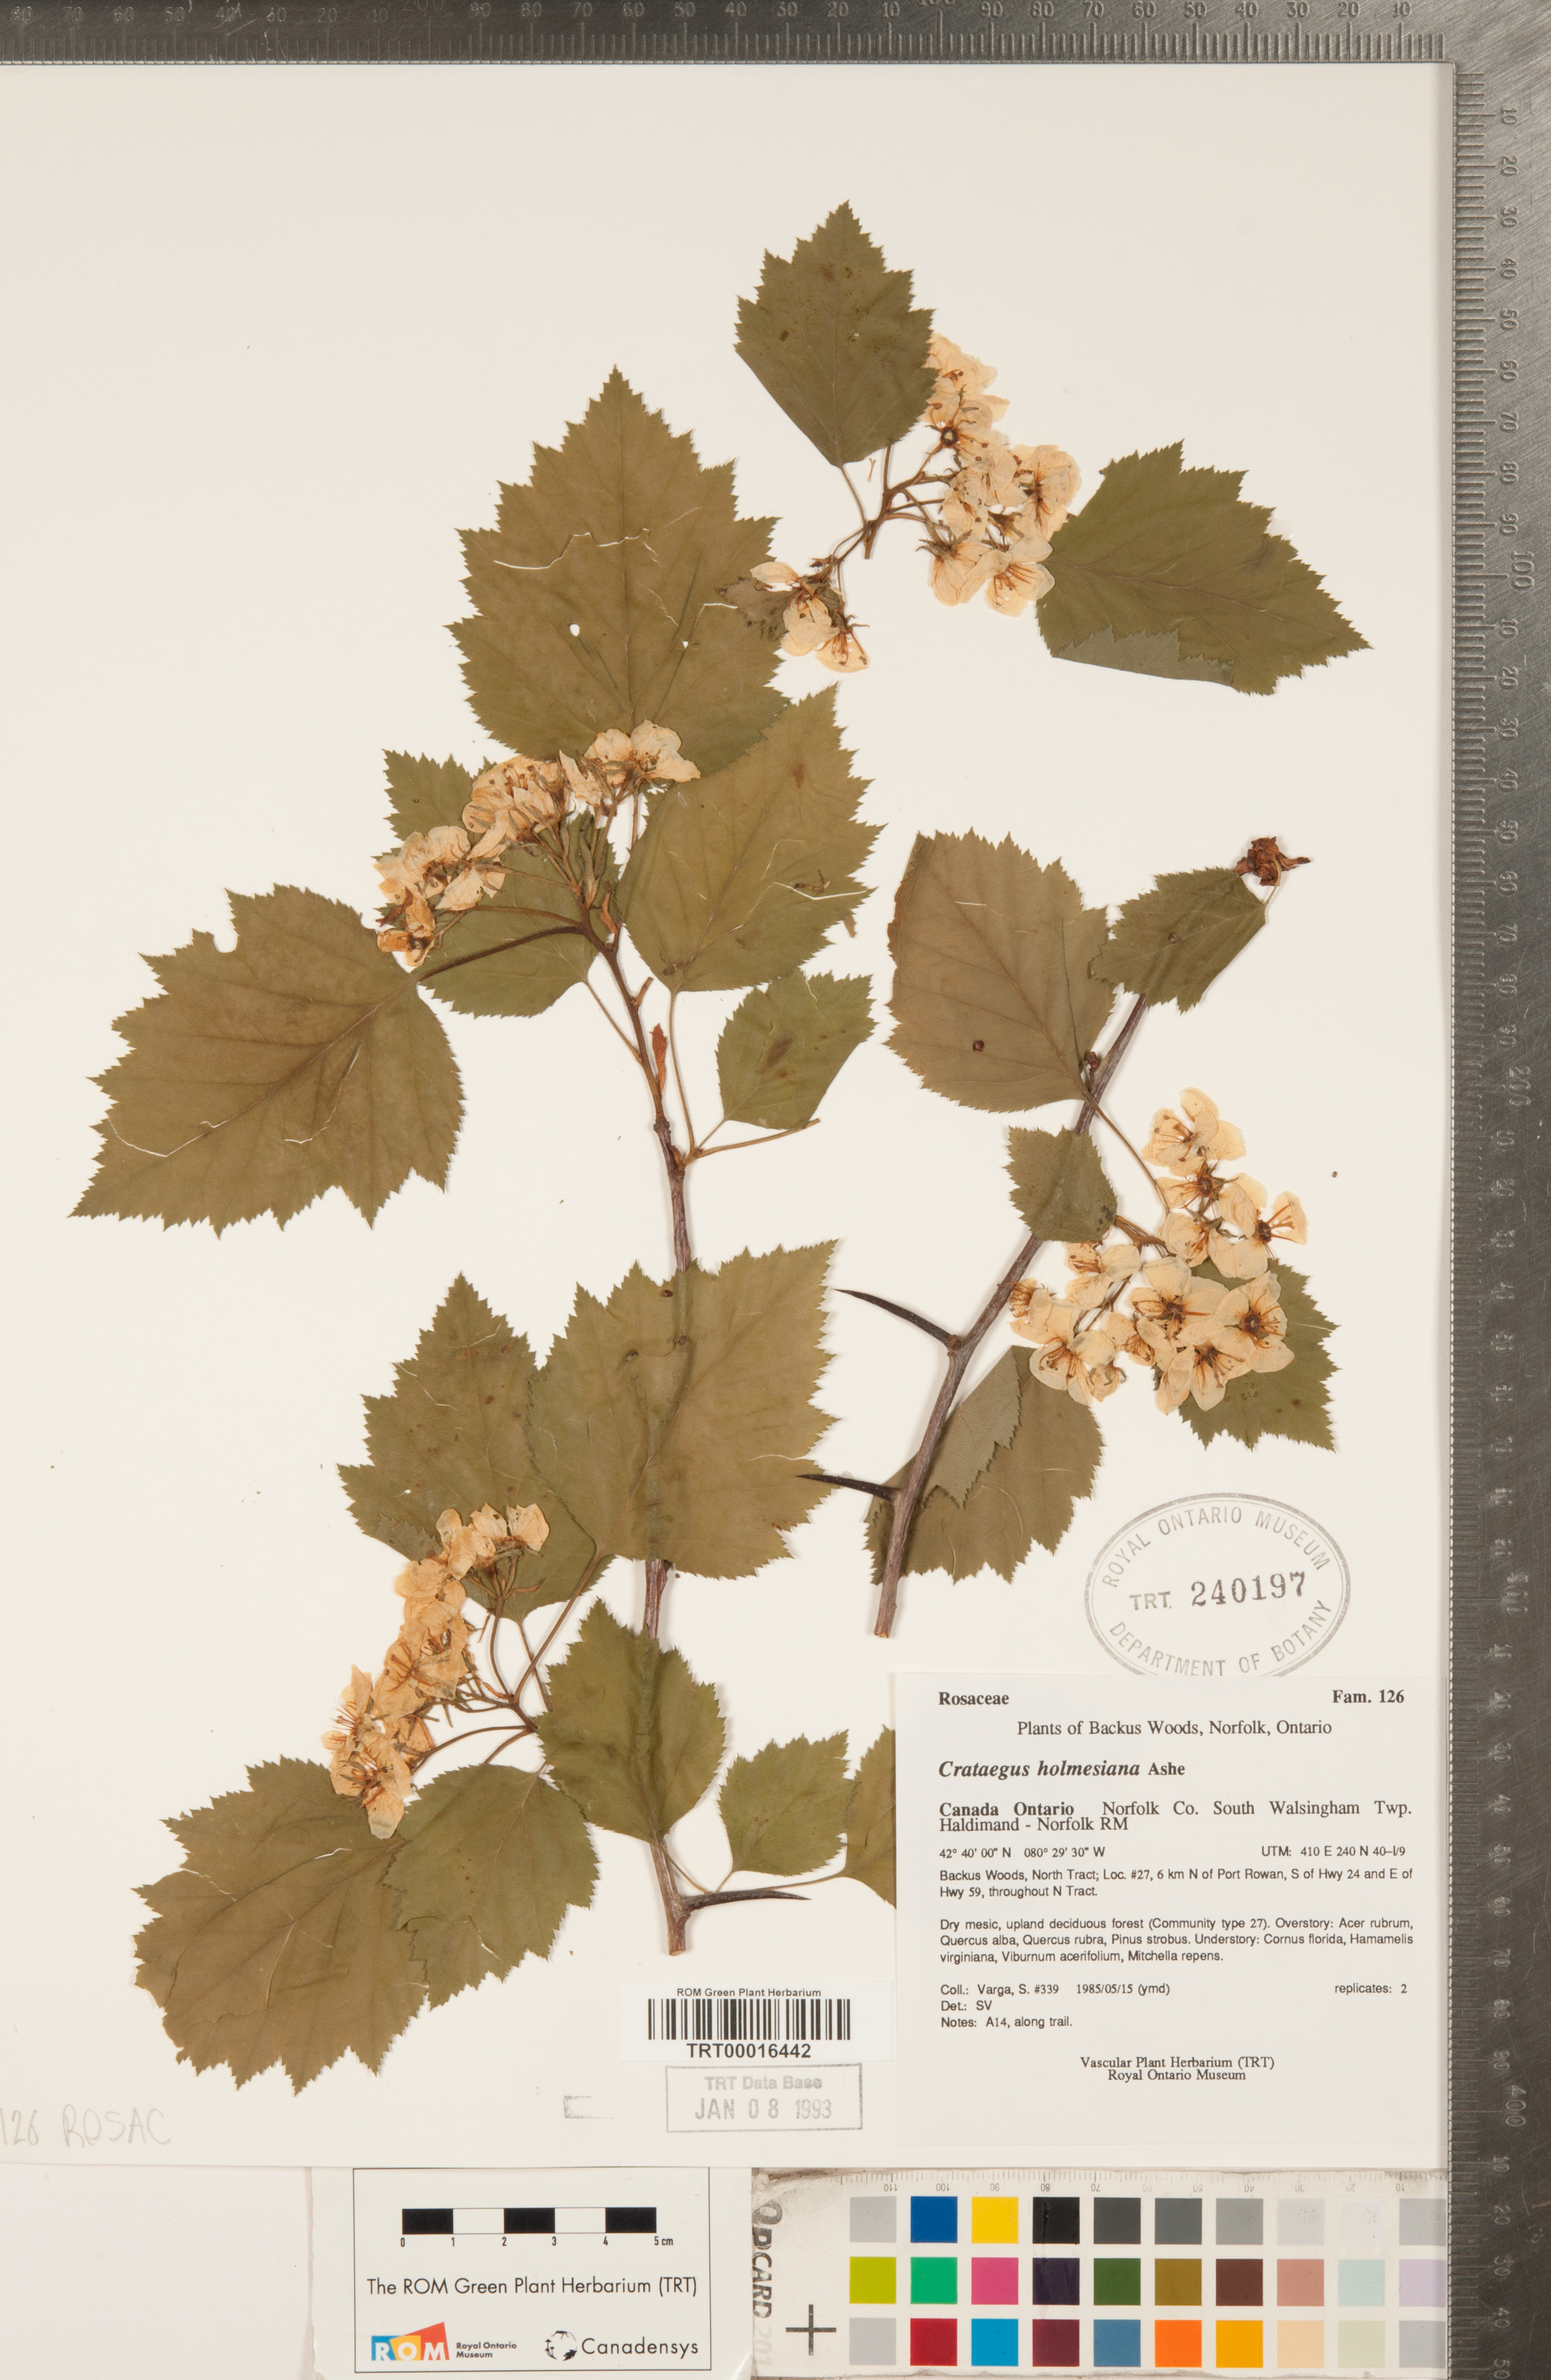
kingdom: Plantae
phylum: Tracheophyta
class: Magnoliopsida
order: Rosales
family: Rosaceae
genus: Crataegus
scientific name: Crataegus holmesiana
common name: Holmes' hawthorn
